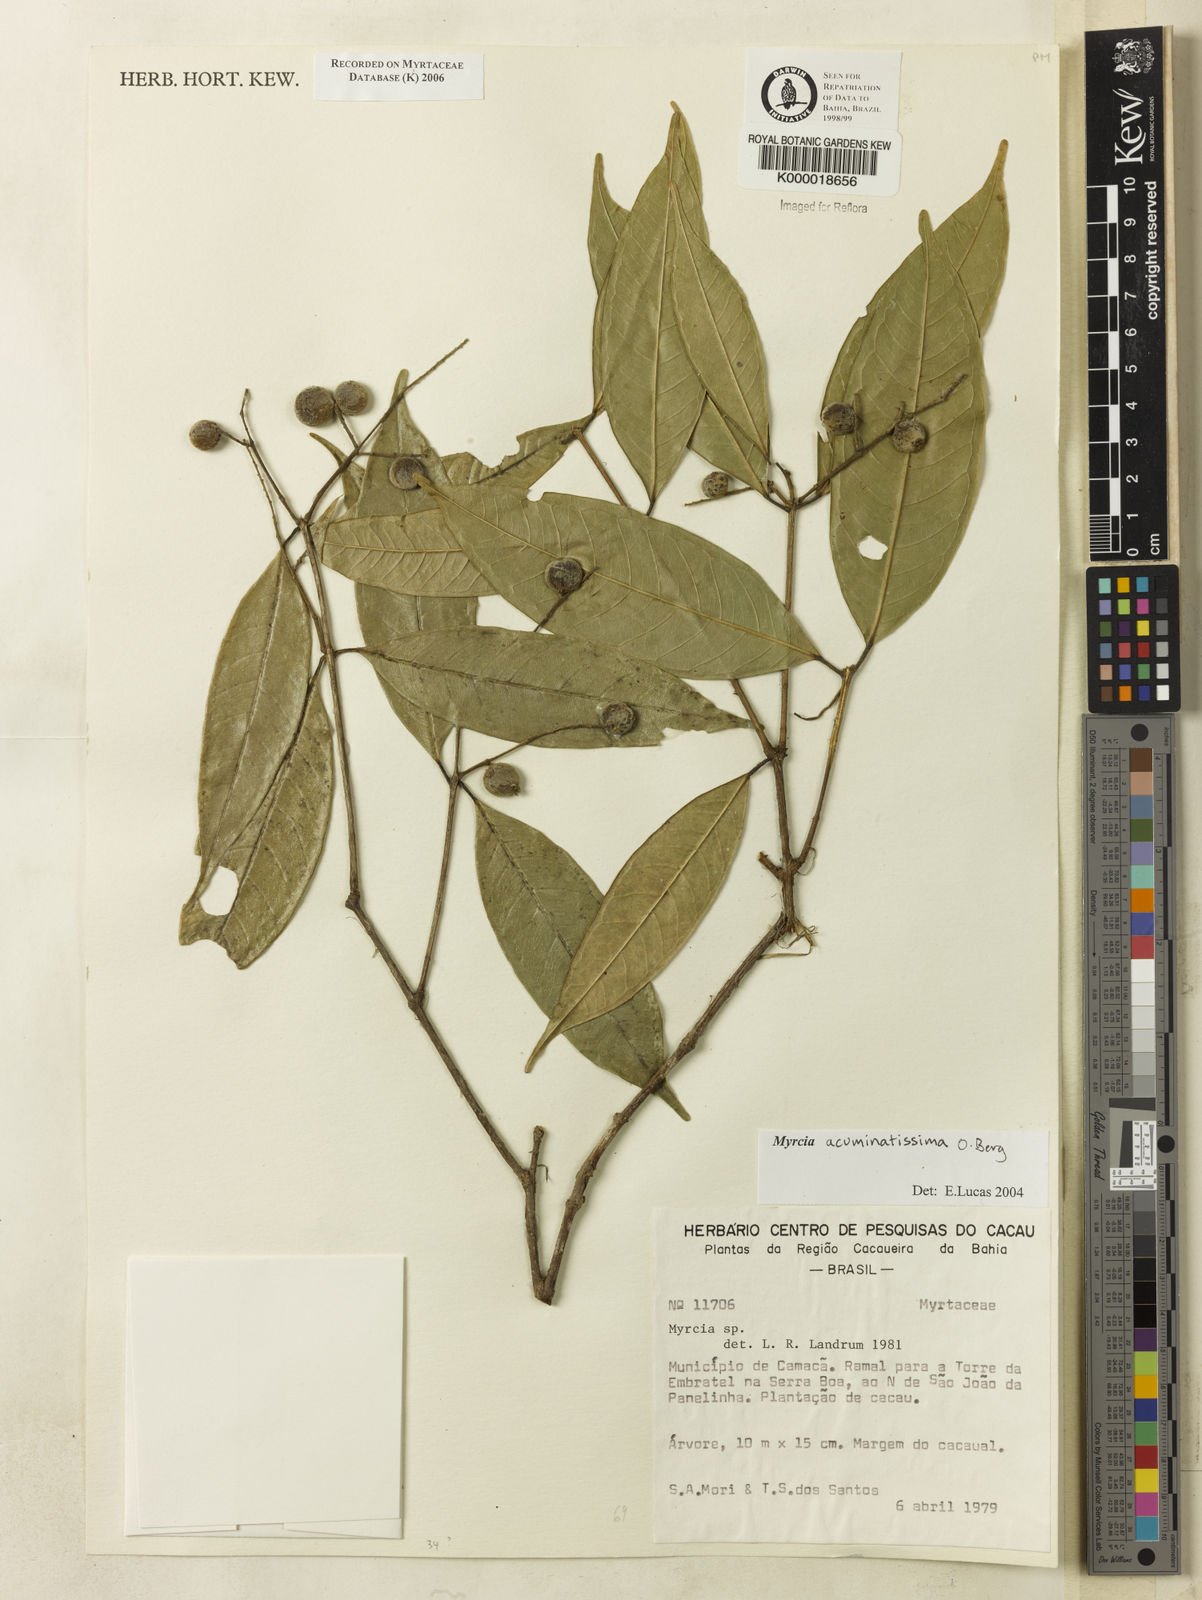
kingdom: Plantae
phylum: Tracheophyta
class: Magnoliopsida
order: Myrtales
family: Myrtaceae
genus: Myrcia
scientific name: Myrcia racemosa
